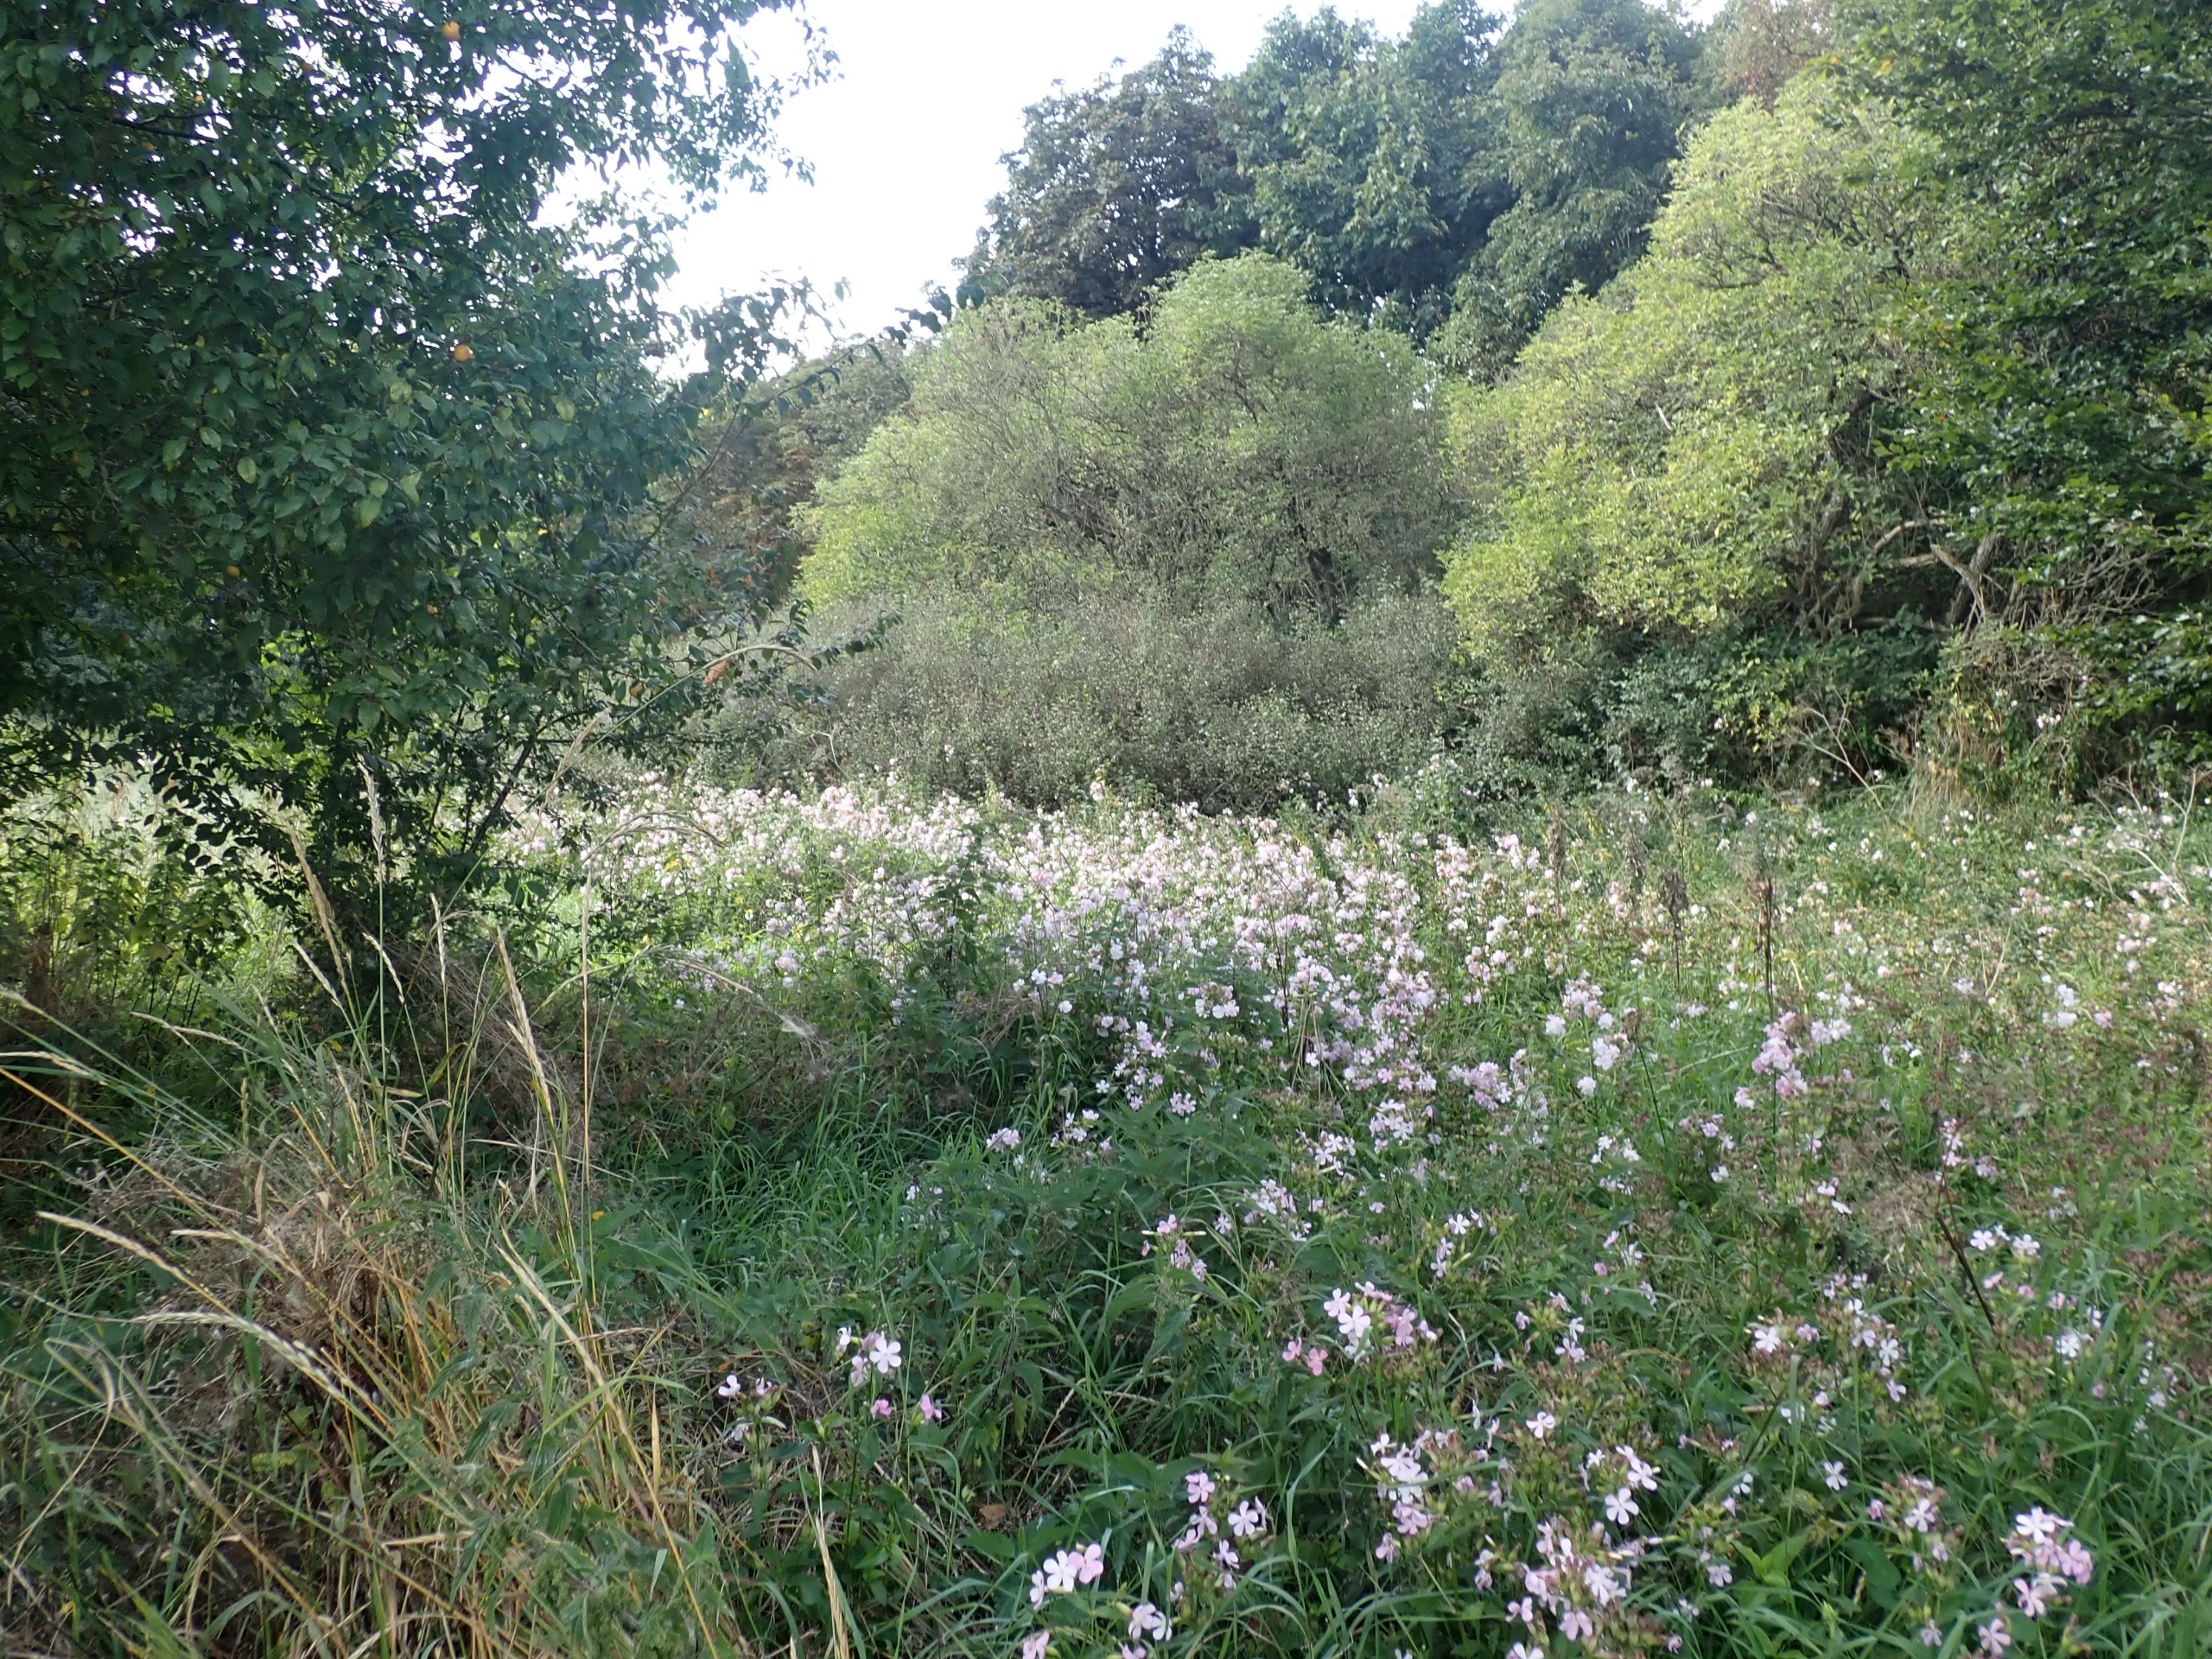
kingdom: Plantae
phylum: Tracheophyta
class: Magnoliopsida
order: Caryophyllales
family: Caryophyllaceae
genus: Saponaria
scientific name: Saponaria officinalis
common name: Sæbeurt
